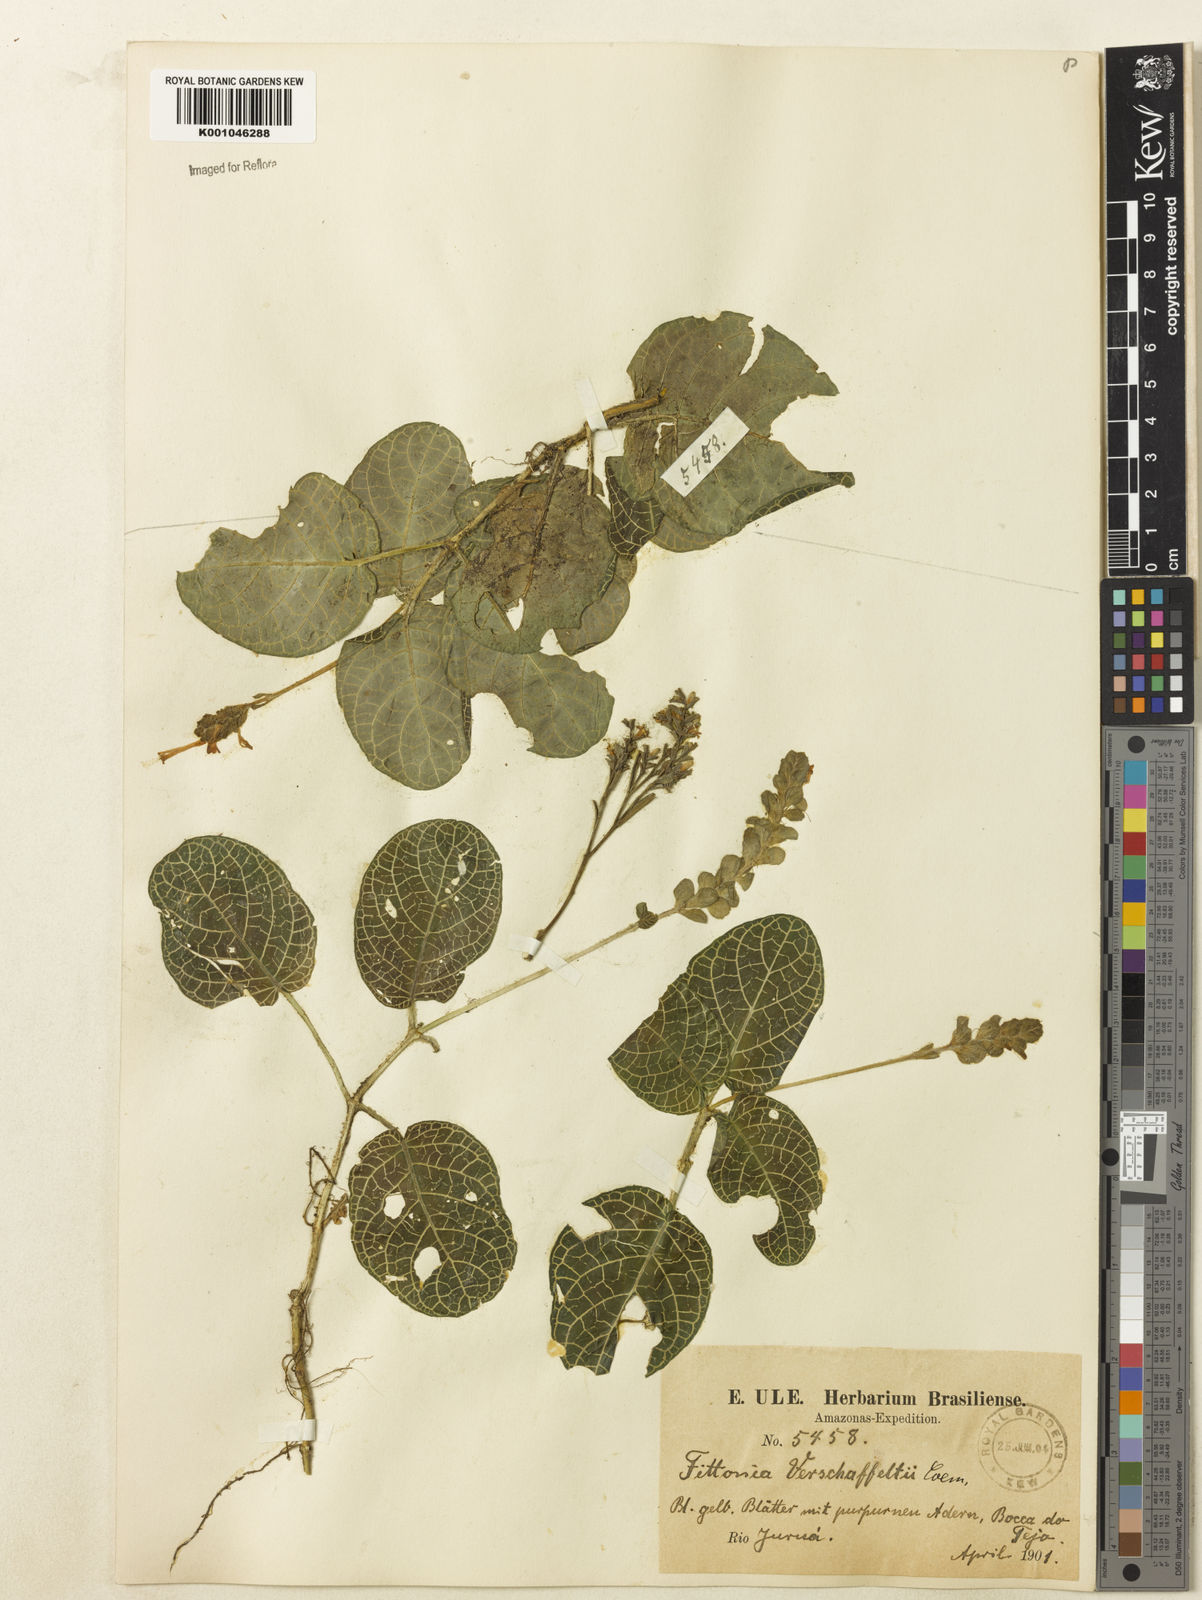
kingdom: Plantae
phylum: Tracheophyta
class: Magnoliopsida
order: Lamiales
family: Acanthaceae
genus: Fittonia
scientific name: Fittonia albivenis
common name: Mosaic-plant
